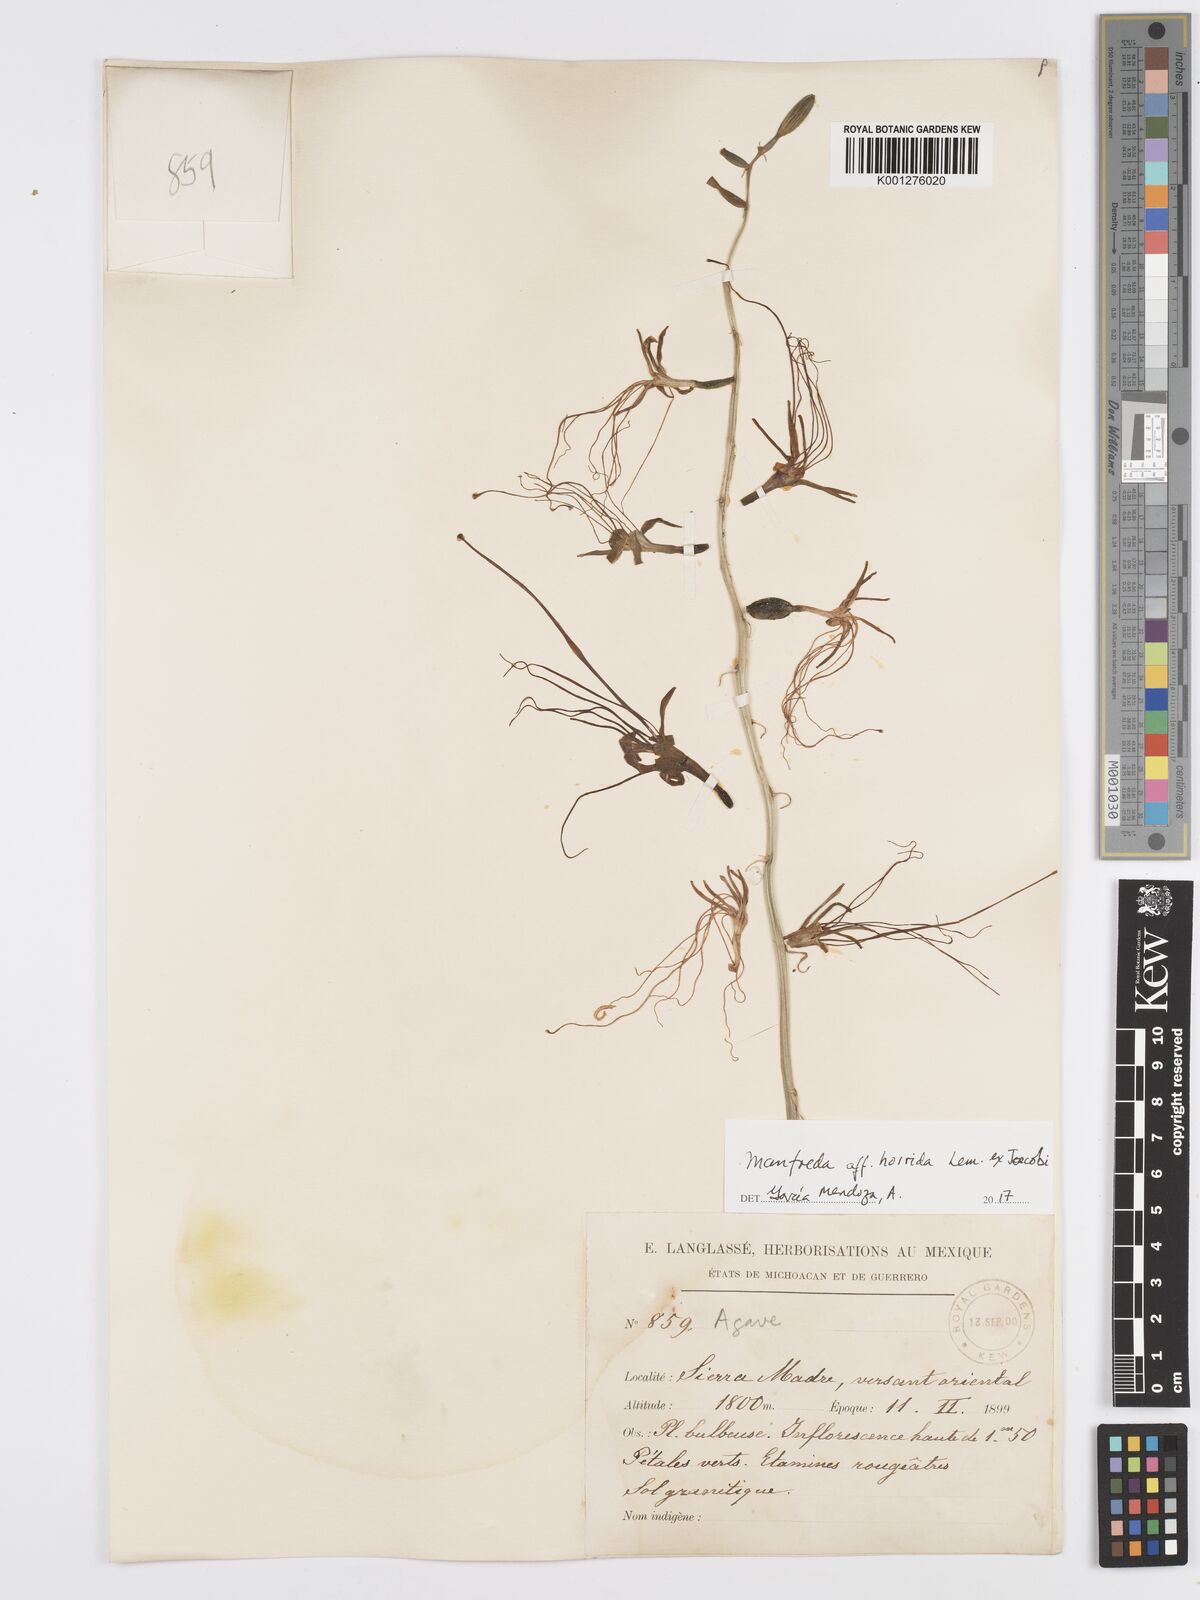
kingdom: Plantae
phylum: Tracheophyta
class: Liliopsida
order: Asparagales
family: Asparagaceae
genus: Agave
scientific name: Agave Manfreda spec
